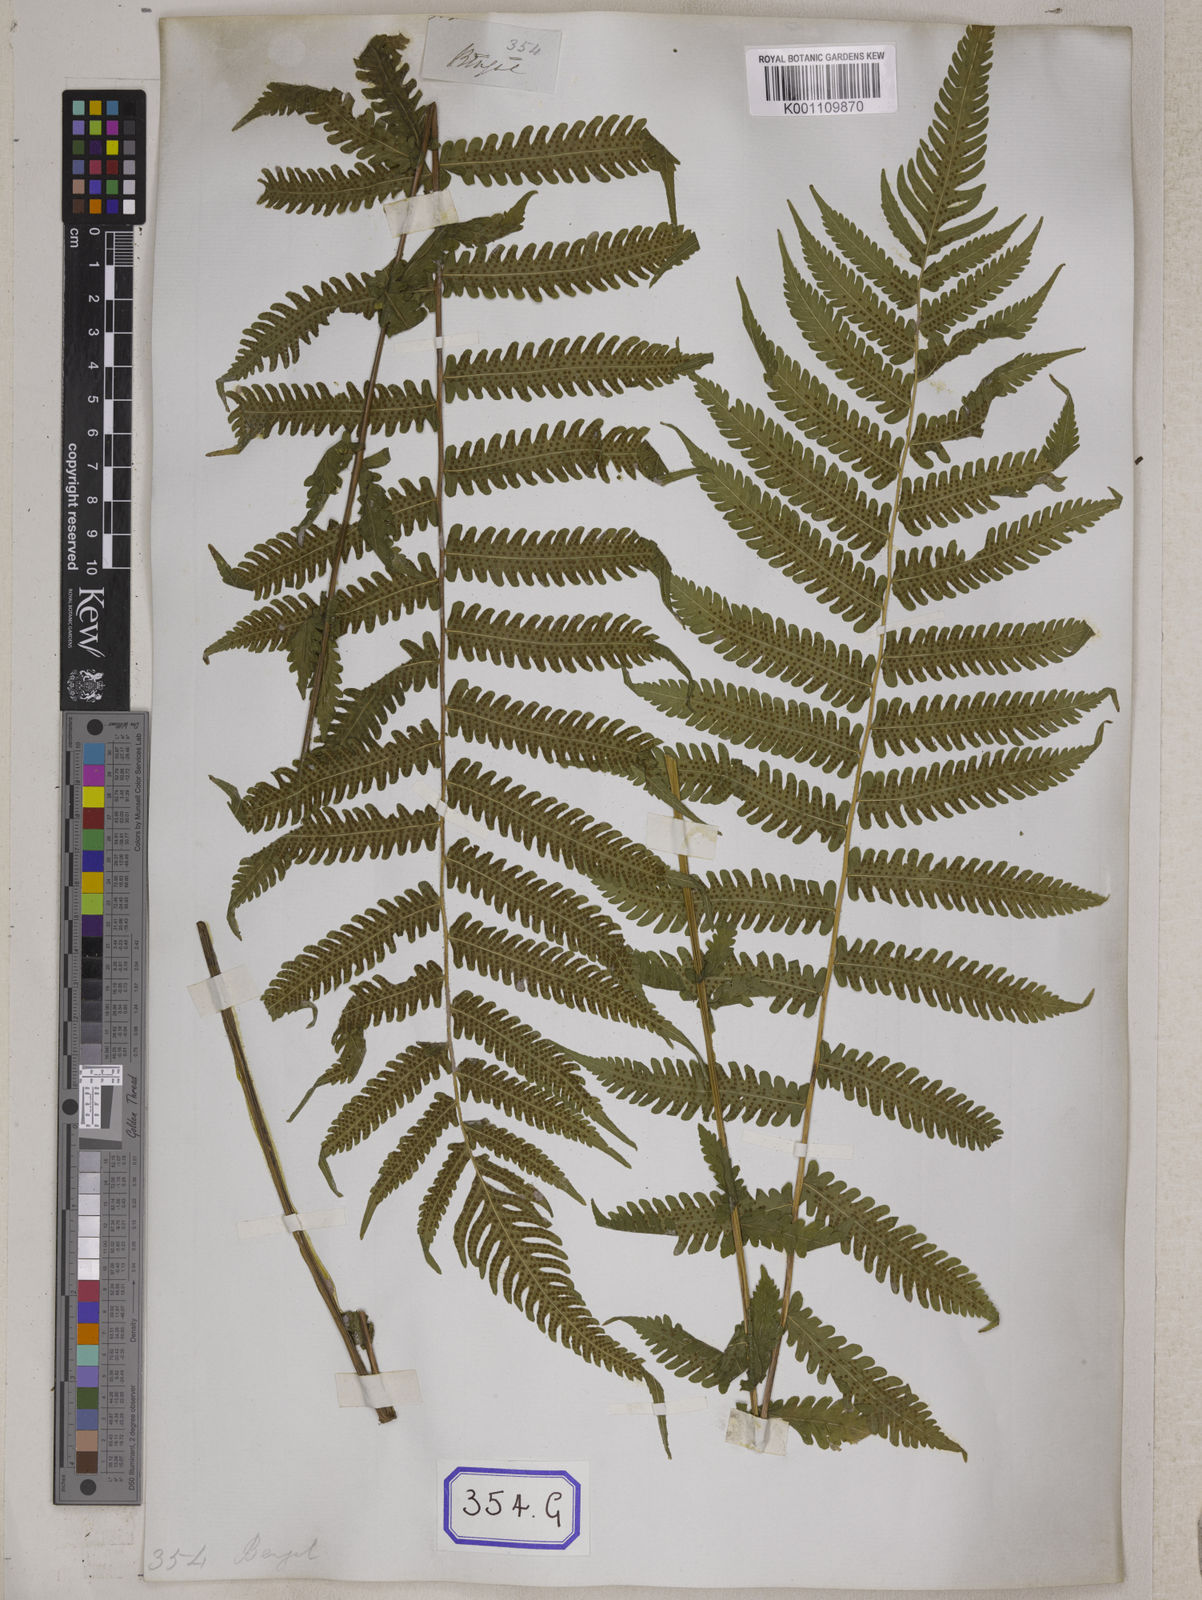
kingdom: Plantae
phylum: Tracheophyta
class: Polypodiopsida
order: Polypodiales
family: Tectariaceae
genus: Tectaria
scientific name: Tectaria Aspidium spec
